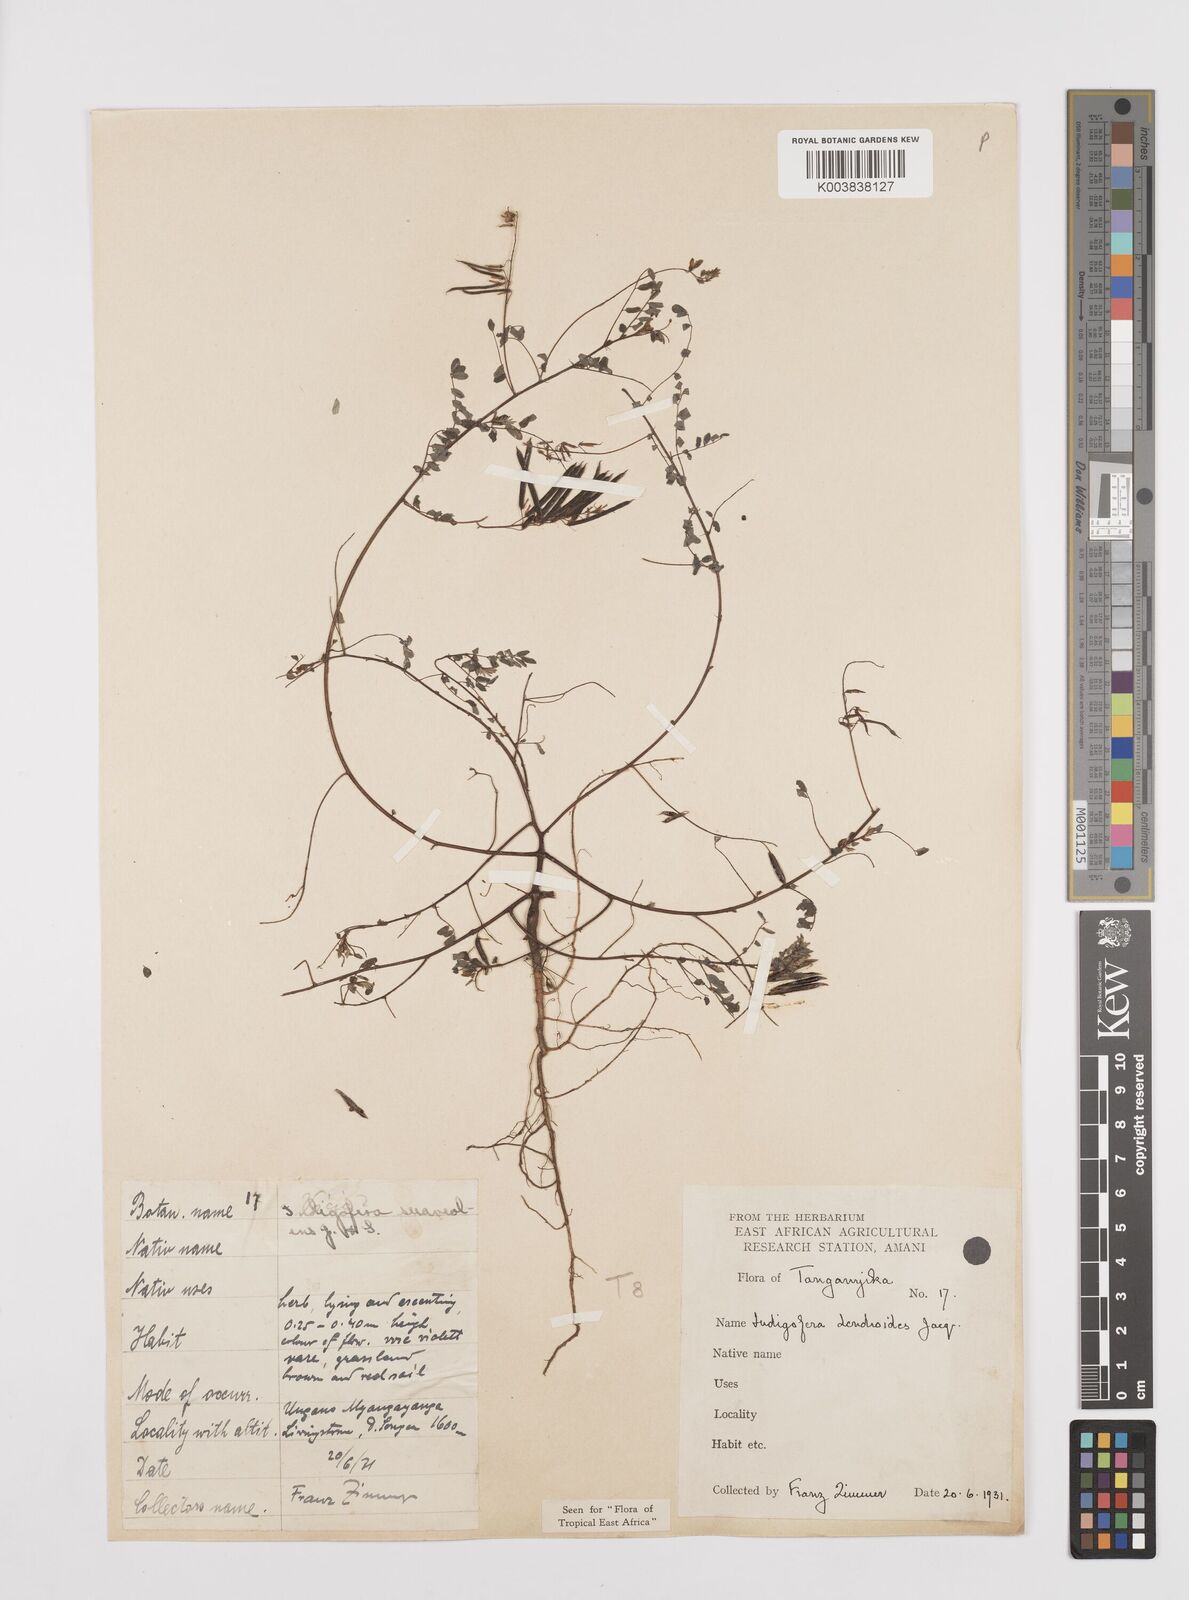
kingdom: Plantae
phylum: Tracheophyta
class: Magnoliopsida
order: Fabales
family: Fabaceae
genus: Indigofera
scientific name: Indigofera dendroides
